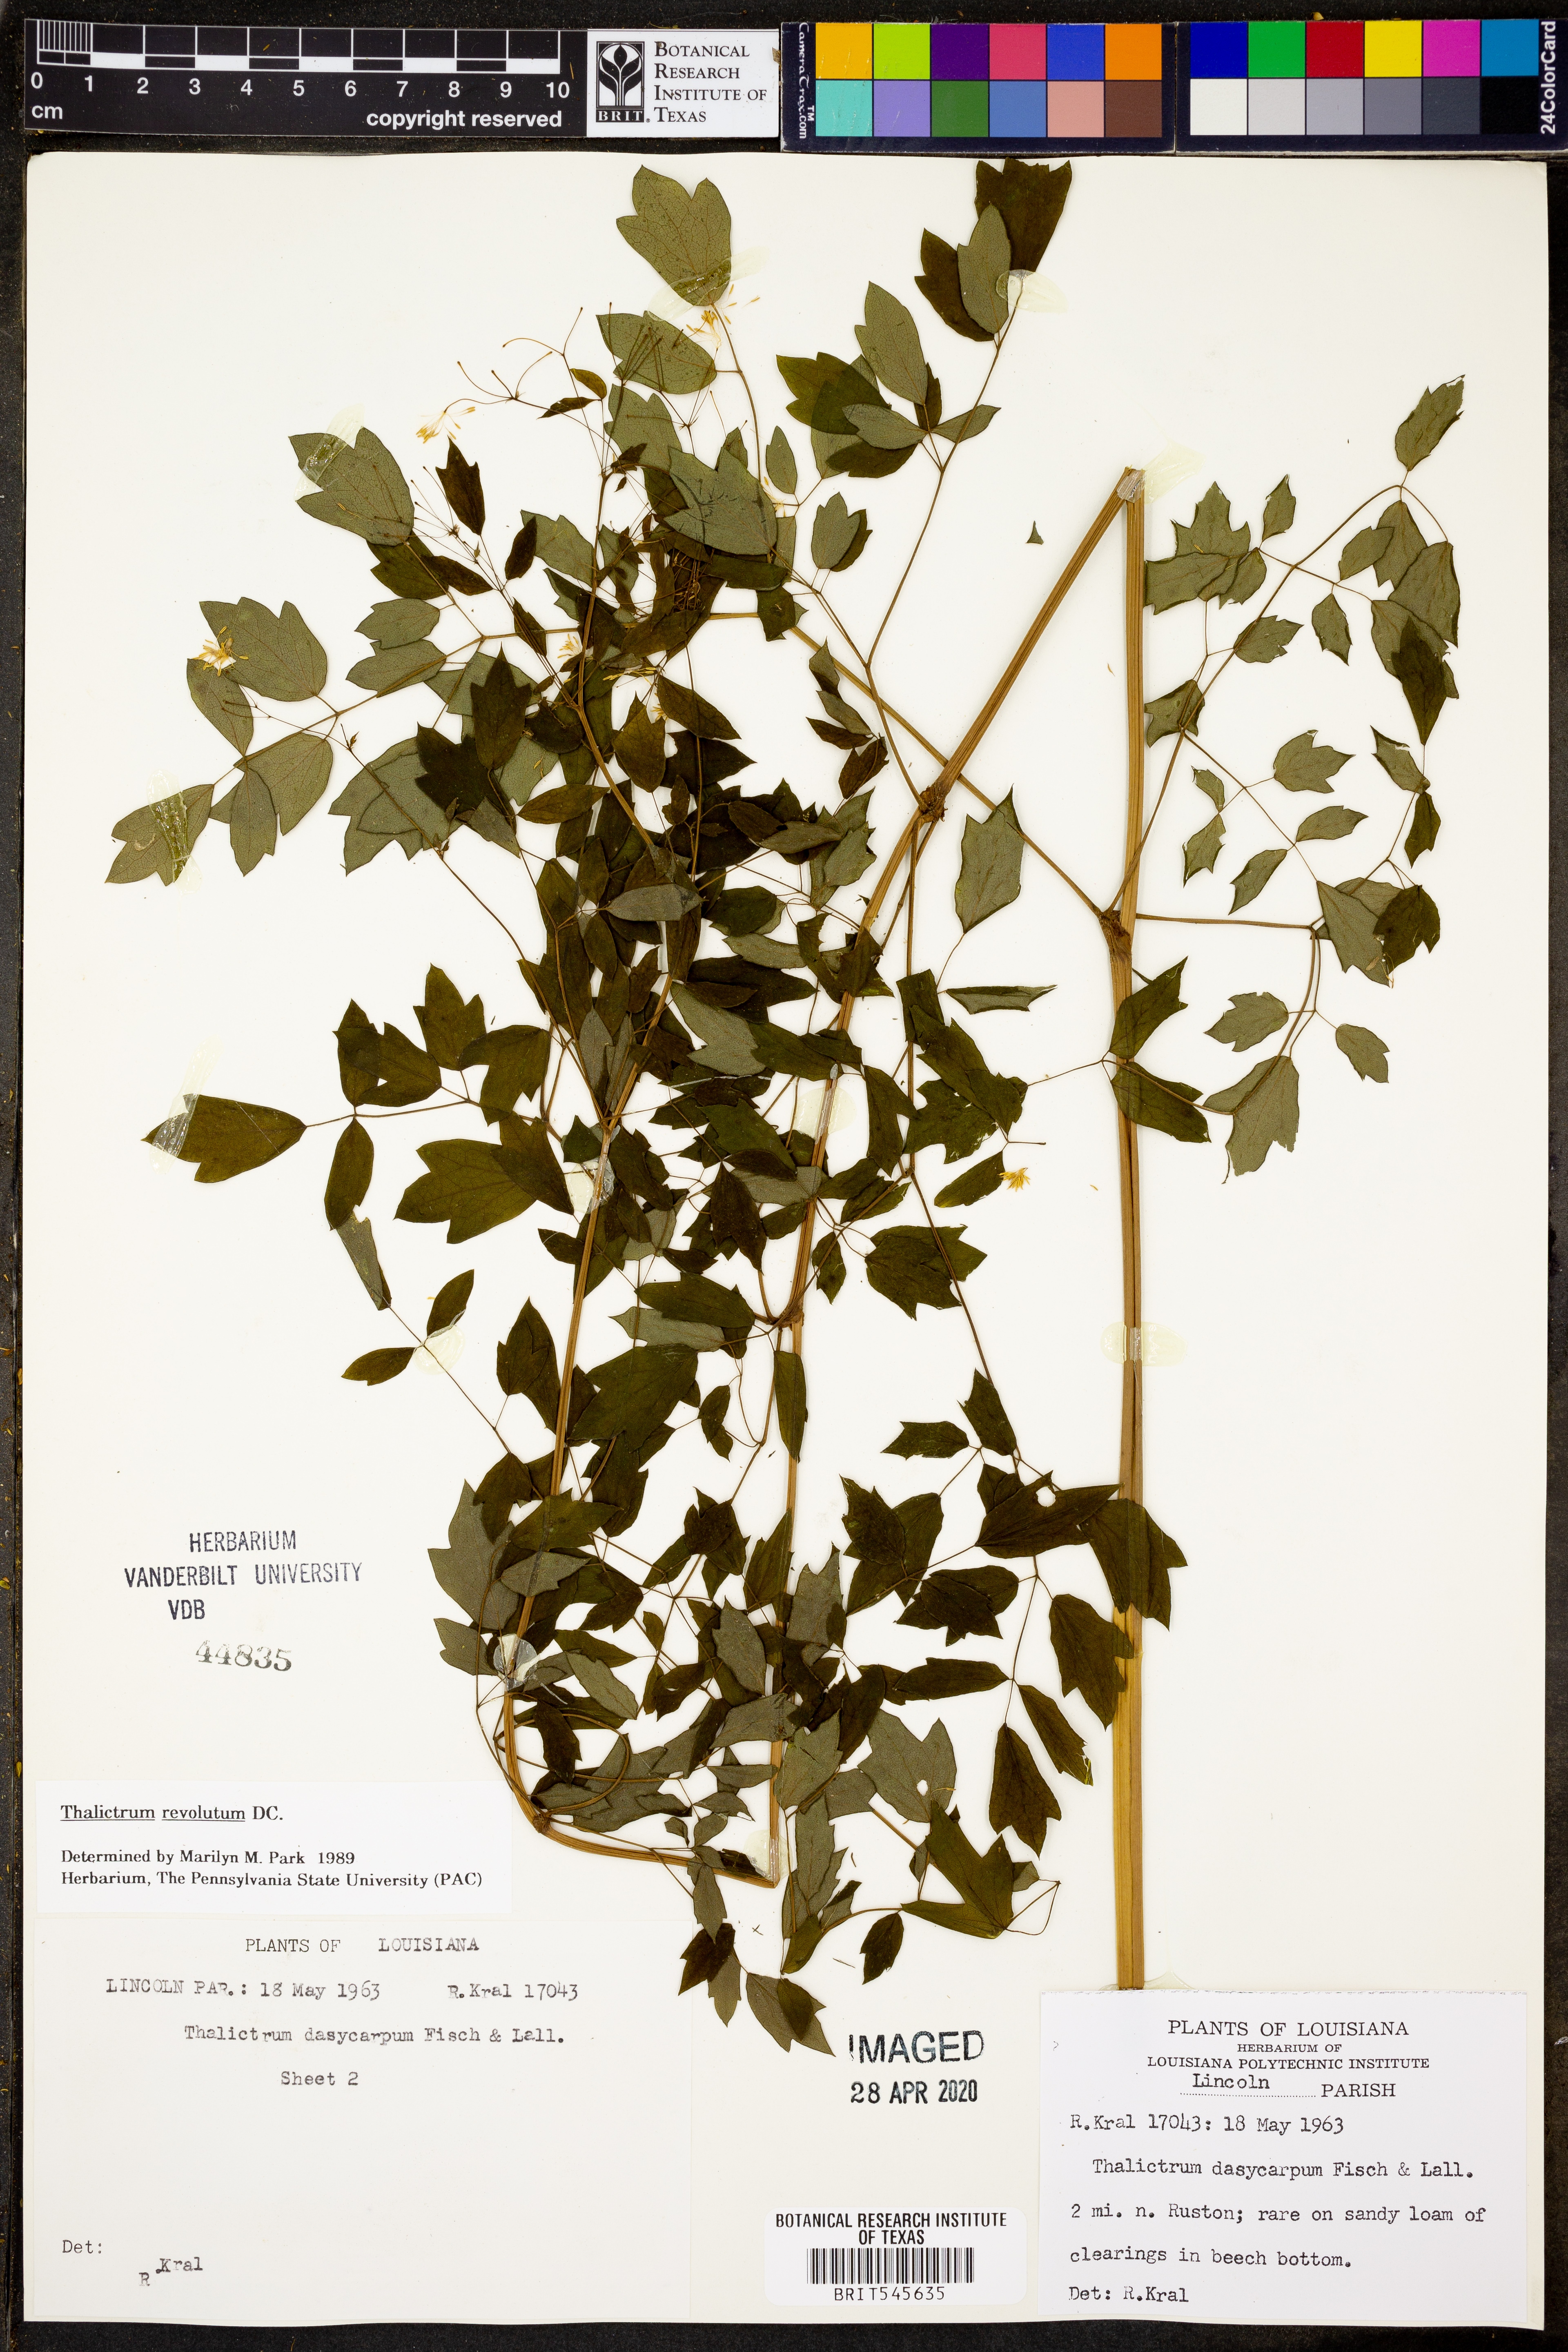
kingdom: Plantae
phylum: Tracheophyta
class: Magnoliopsida
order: Ranunculales
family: Ranunculaceae
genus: Thalictrum
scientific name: Thalictrum dasycarpum
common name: Purple meadow-rue
